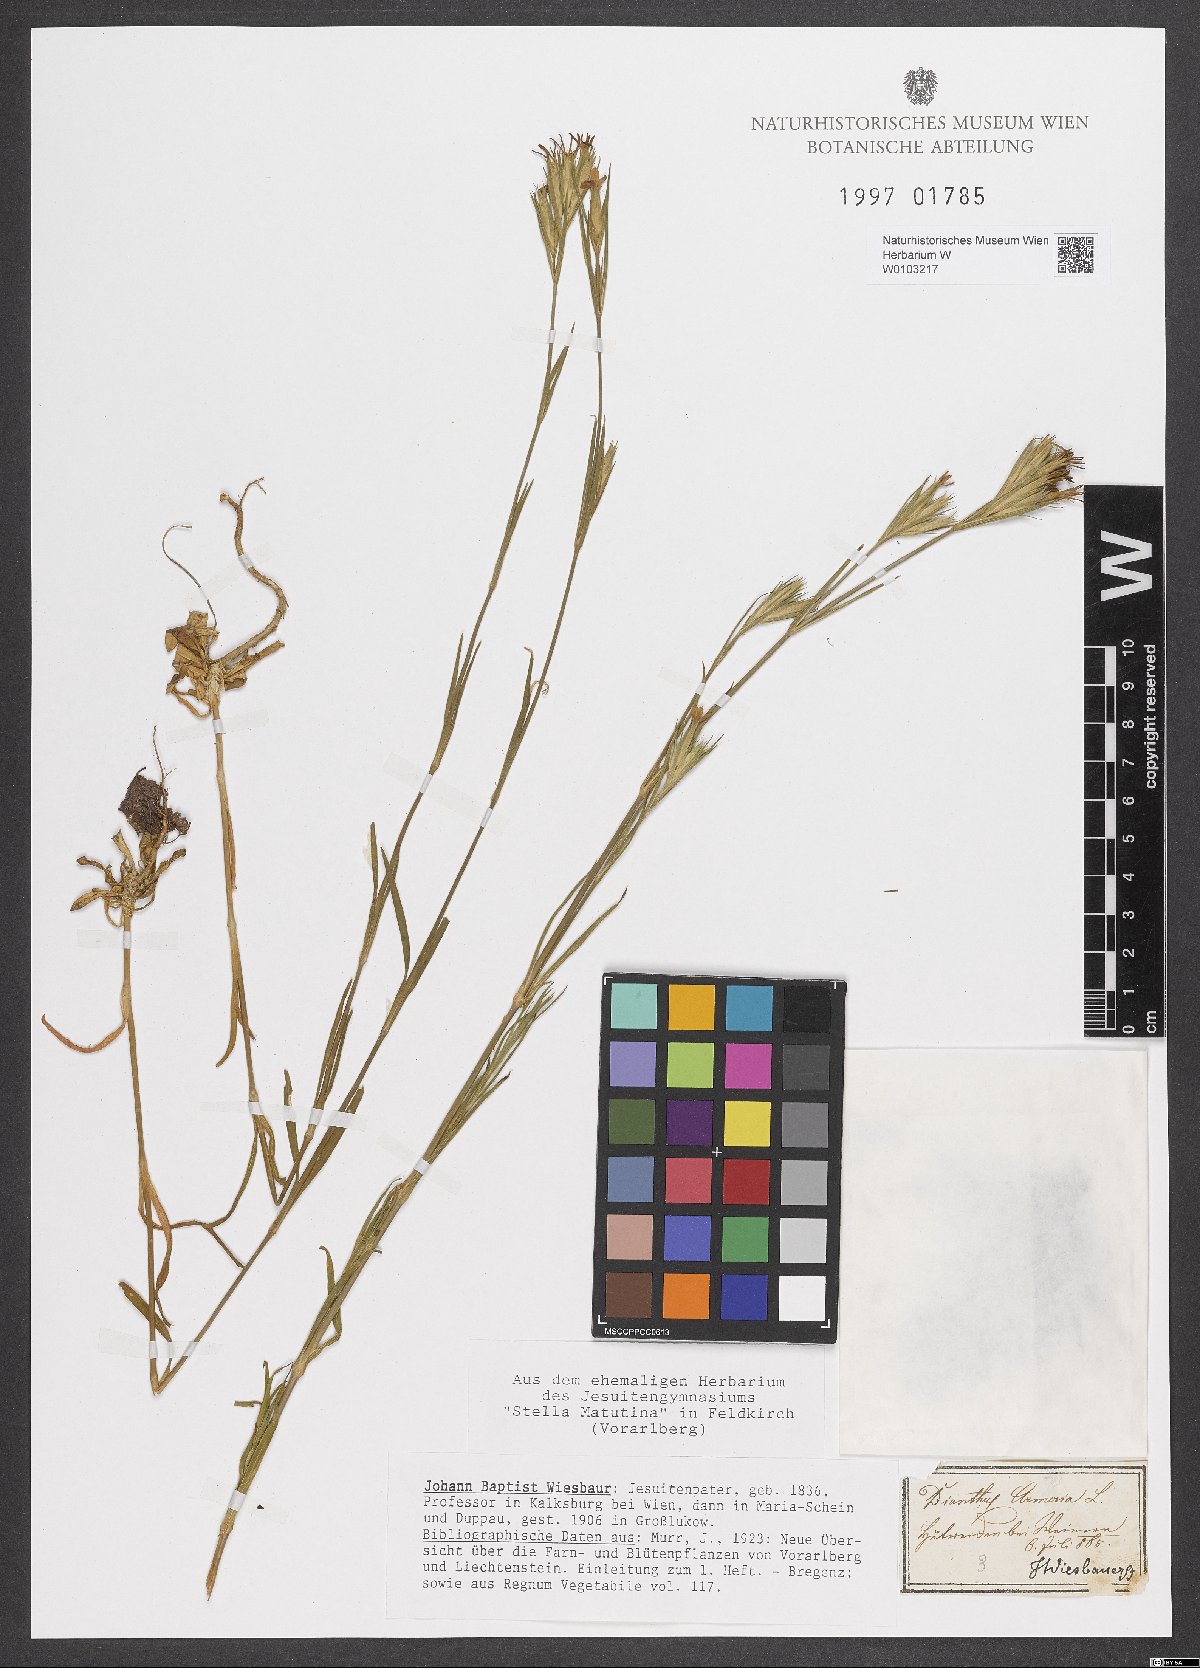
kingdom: Plantae
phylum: Tracheophyta
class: Magnoliopsida
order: Caryophyllales
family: Caryophyllaceae
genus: Dianthus
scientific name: Dianthus armeria
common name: Deptford pink
